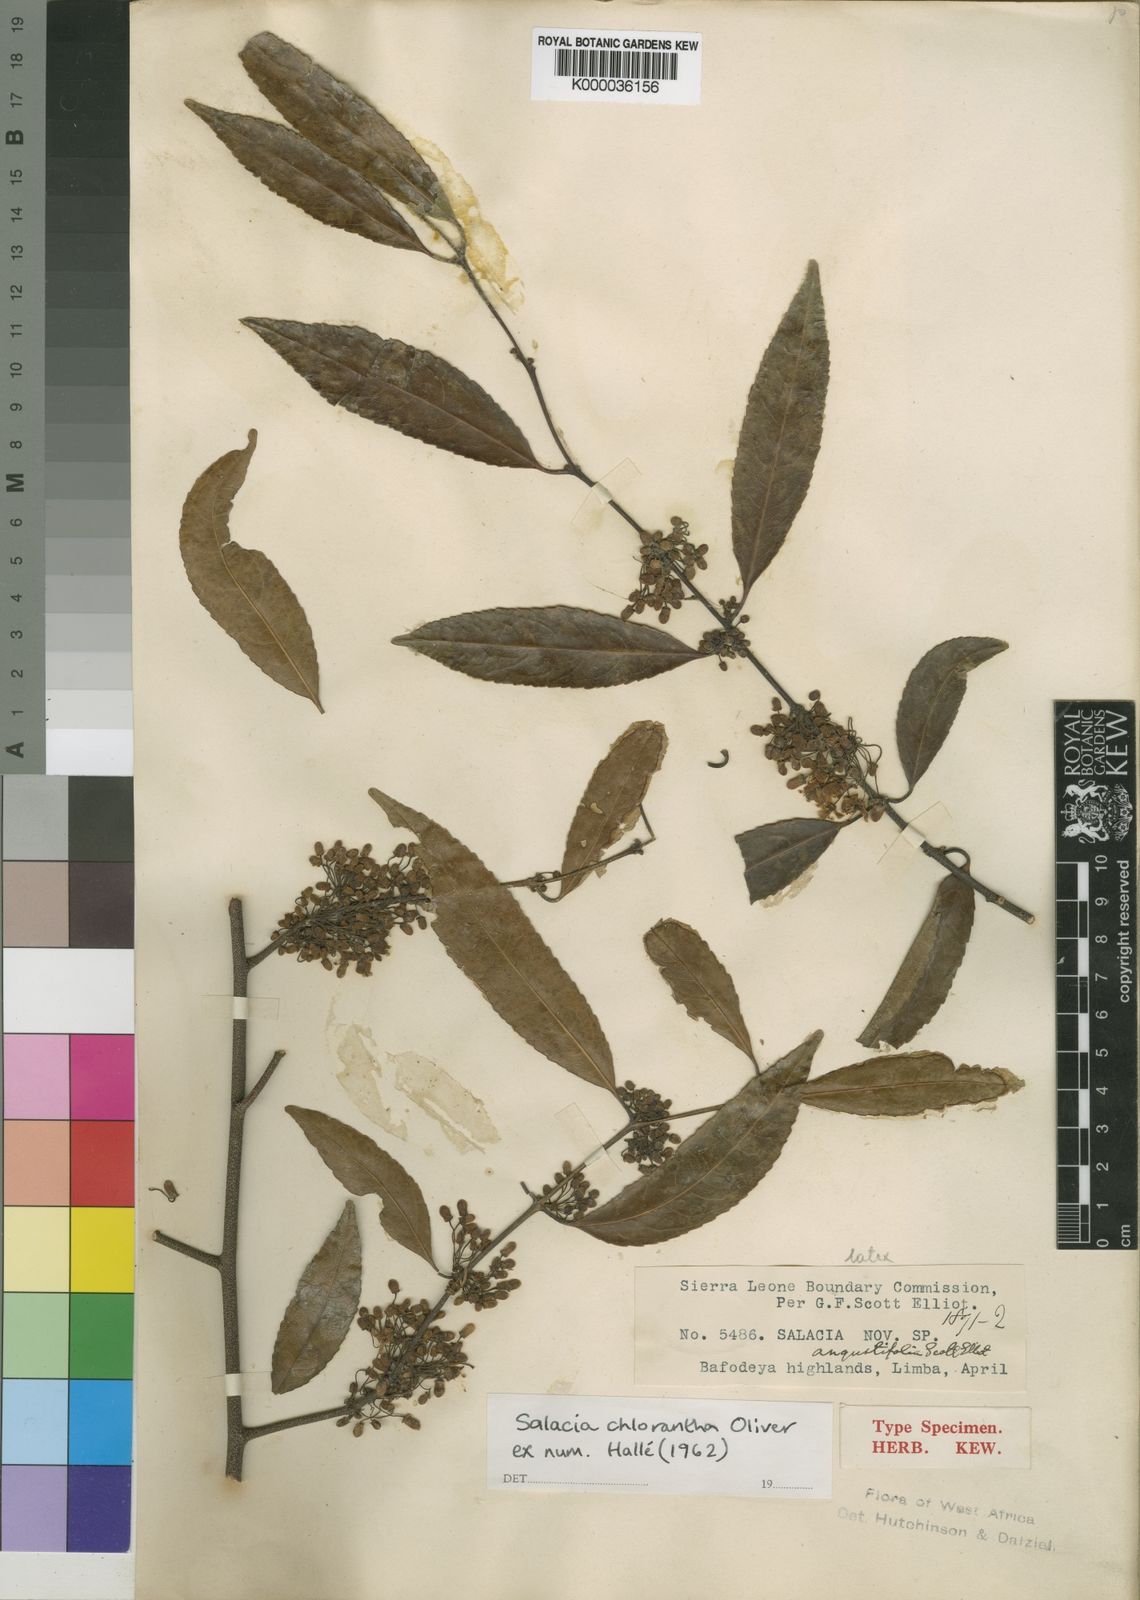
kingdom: Plantae
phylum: Tracheophyta
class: Magnoliopsida
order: Celastrales
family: Celastraceae
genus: Salacia
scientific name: Salacia chlorantha
